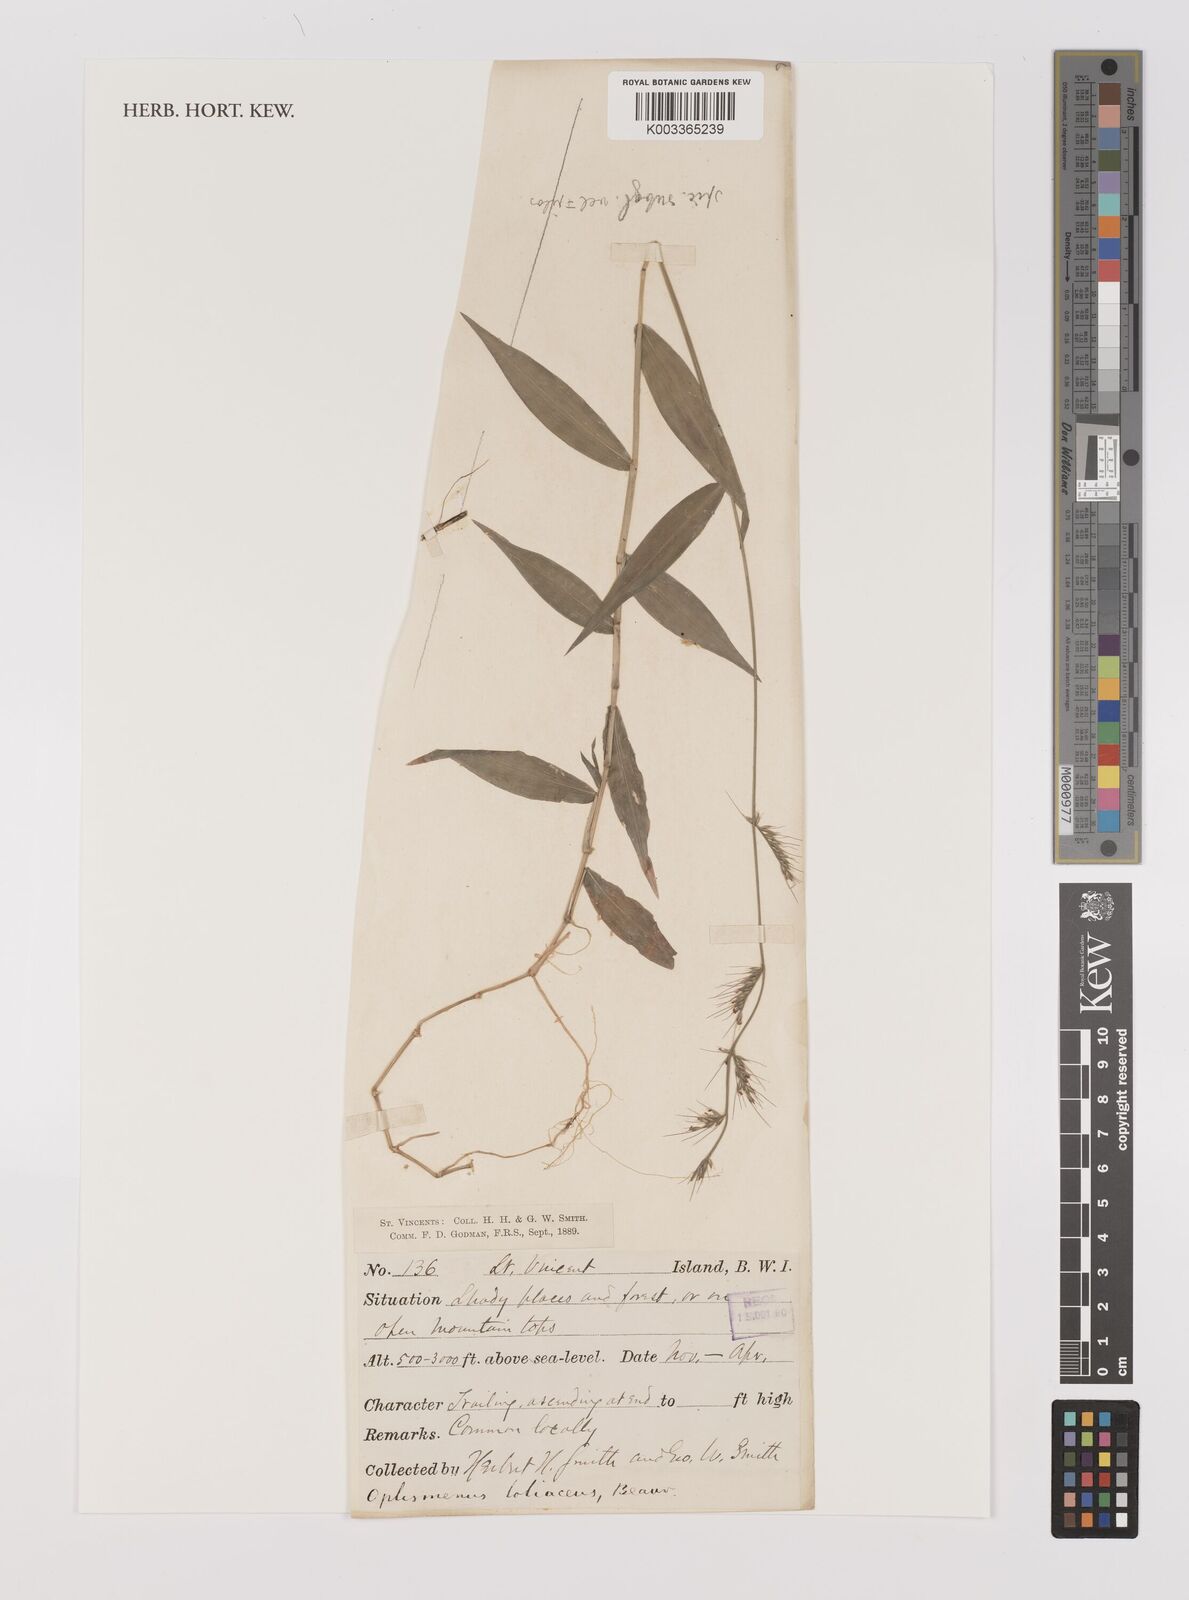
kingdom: Plantae
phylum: Tracheophyta
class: Liliopsida
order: Poales
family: Poaceae
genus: Oplismenus
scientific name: Oplismenus hirtellus
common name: Basketgrass
